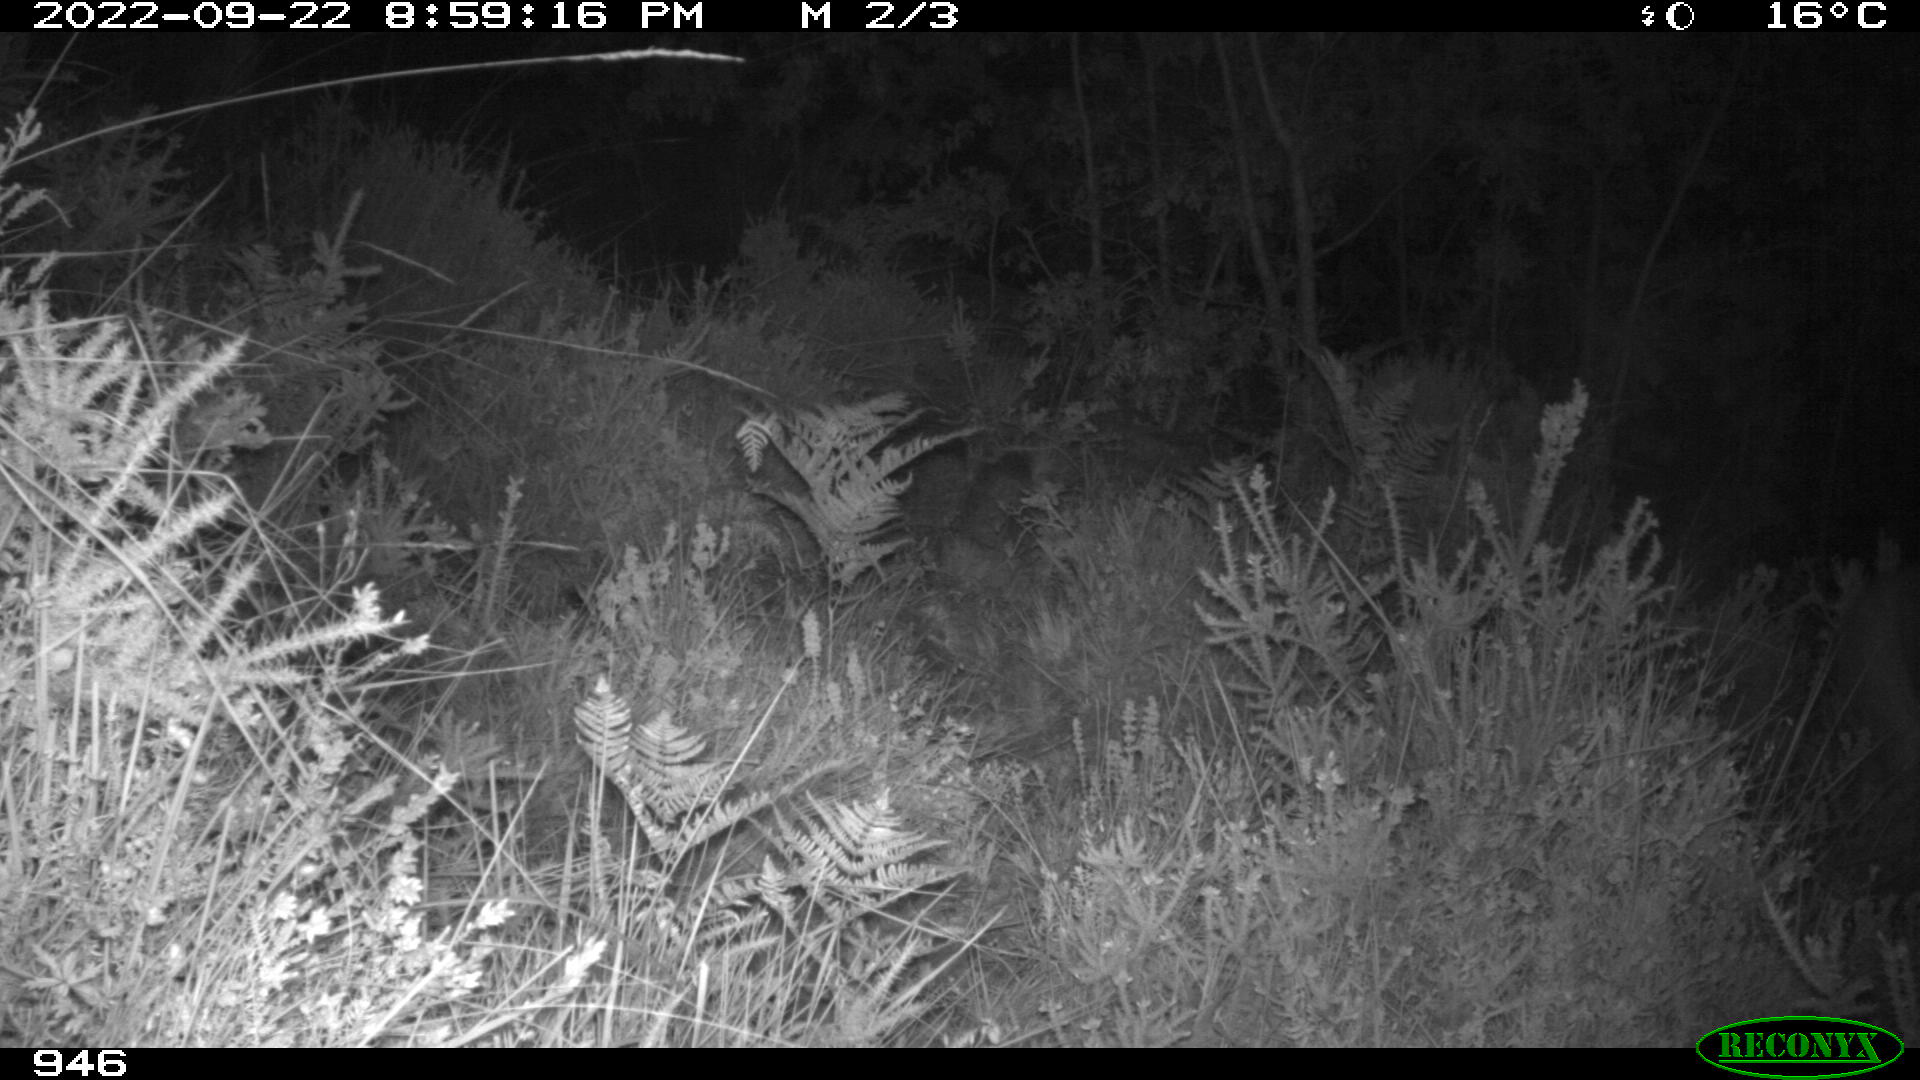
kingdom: Animalia
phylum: Chordata
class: Mammalia
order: Artiodactyla
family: Cervidae
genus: Capreolus
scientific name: Capreolus capreolus
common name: Western roe deer
